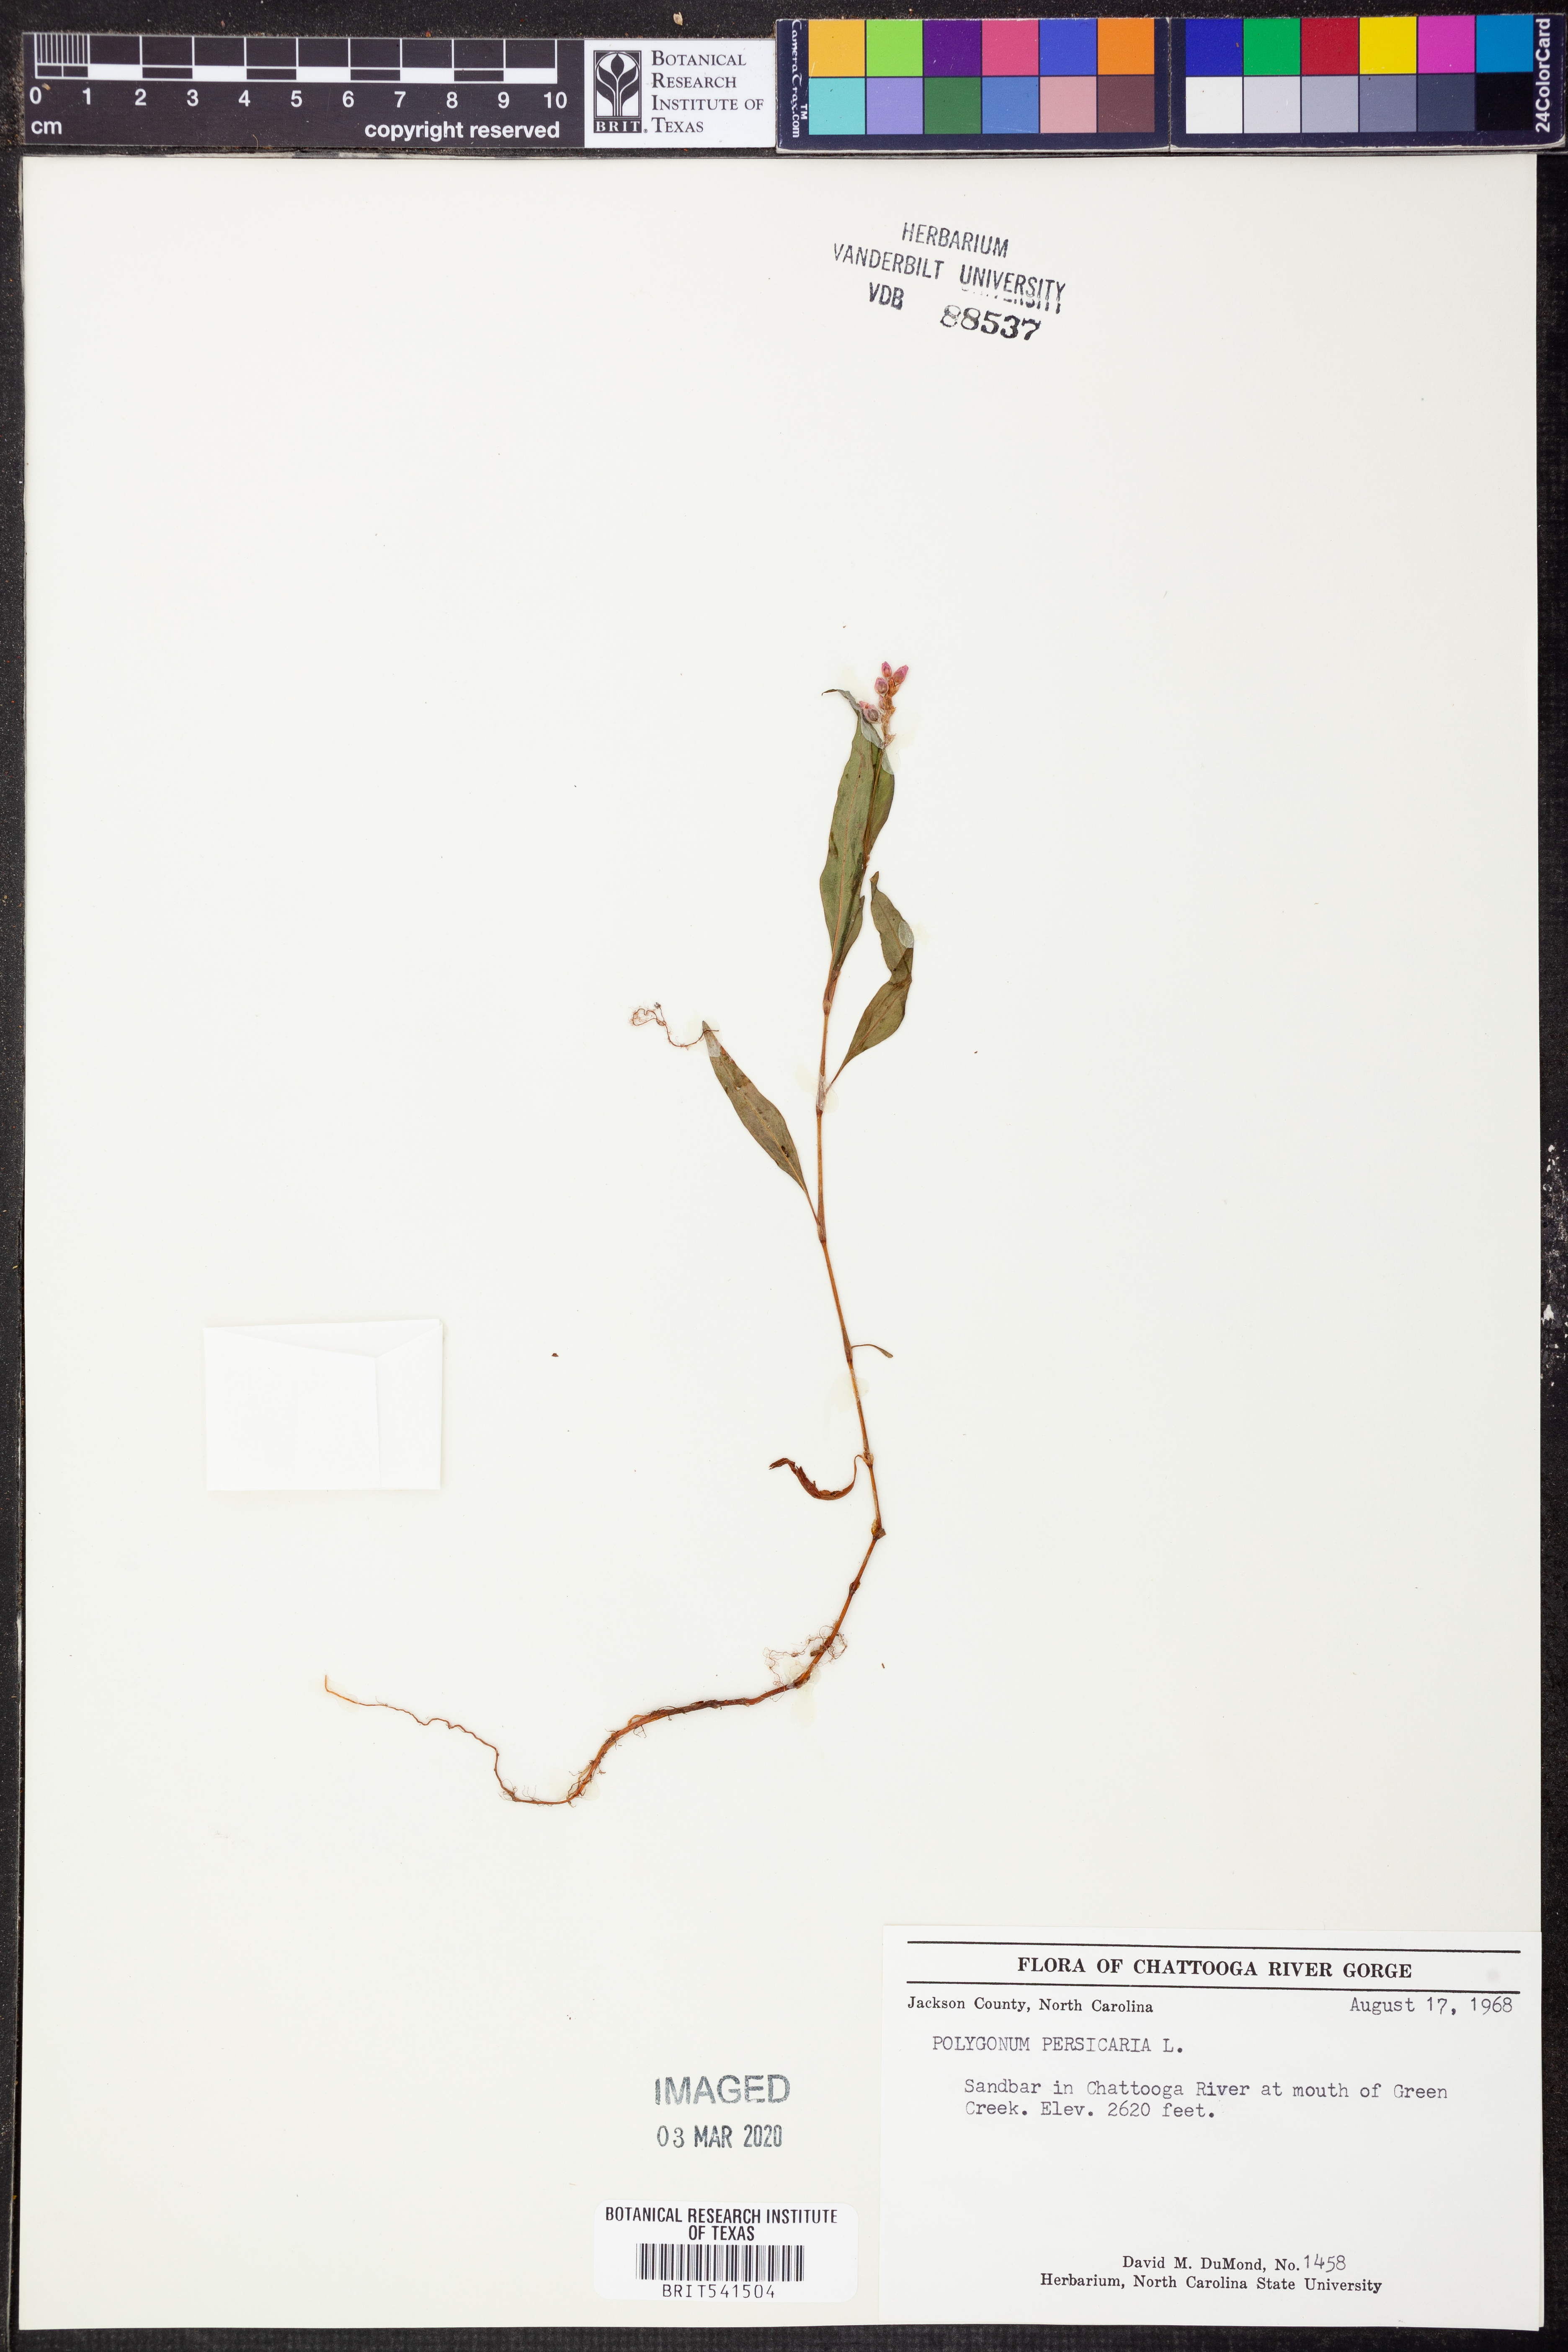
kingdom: Plantae
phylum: Tracheophyta
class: Magnoliopsida
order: Caryophyllales
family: Polygonaceae
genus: Persicaria
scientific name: Persicaria maculosa
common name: Redshank
